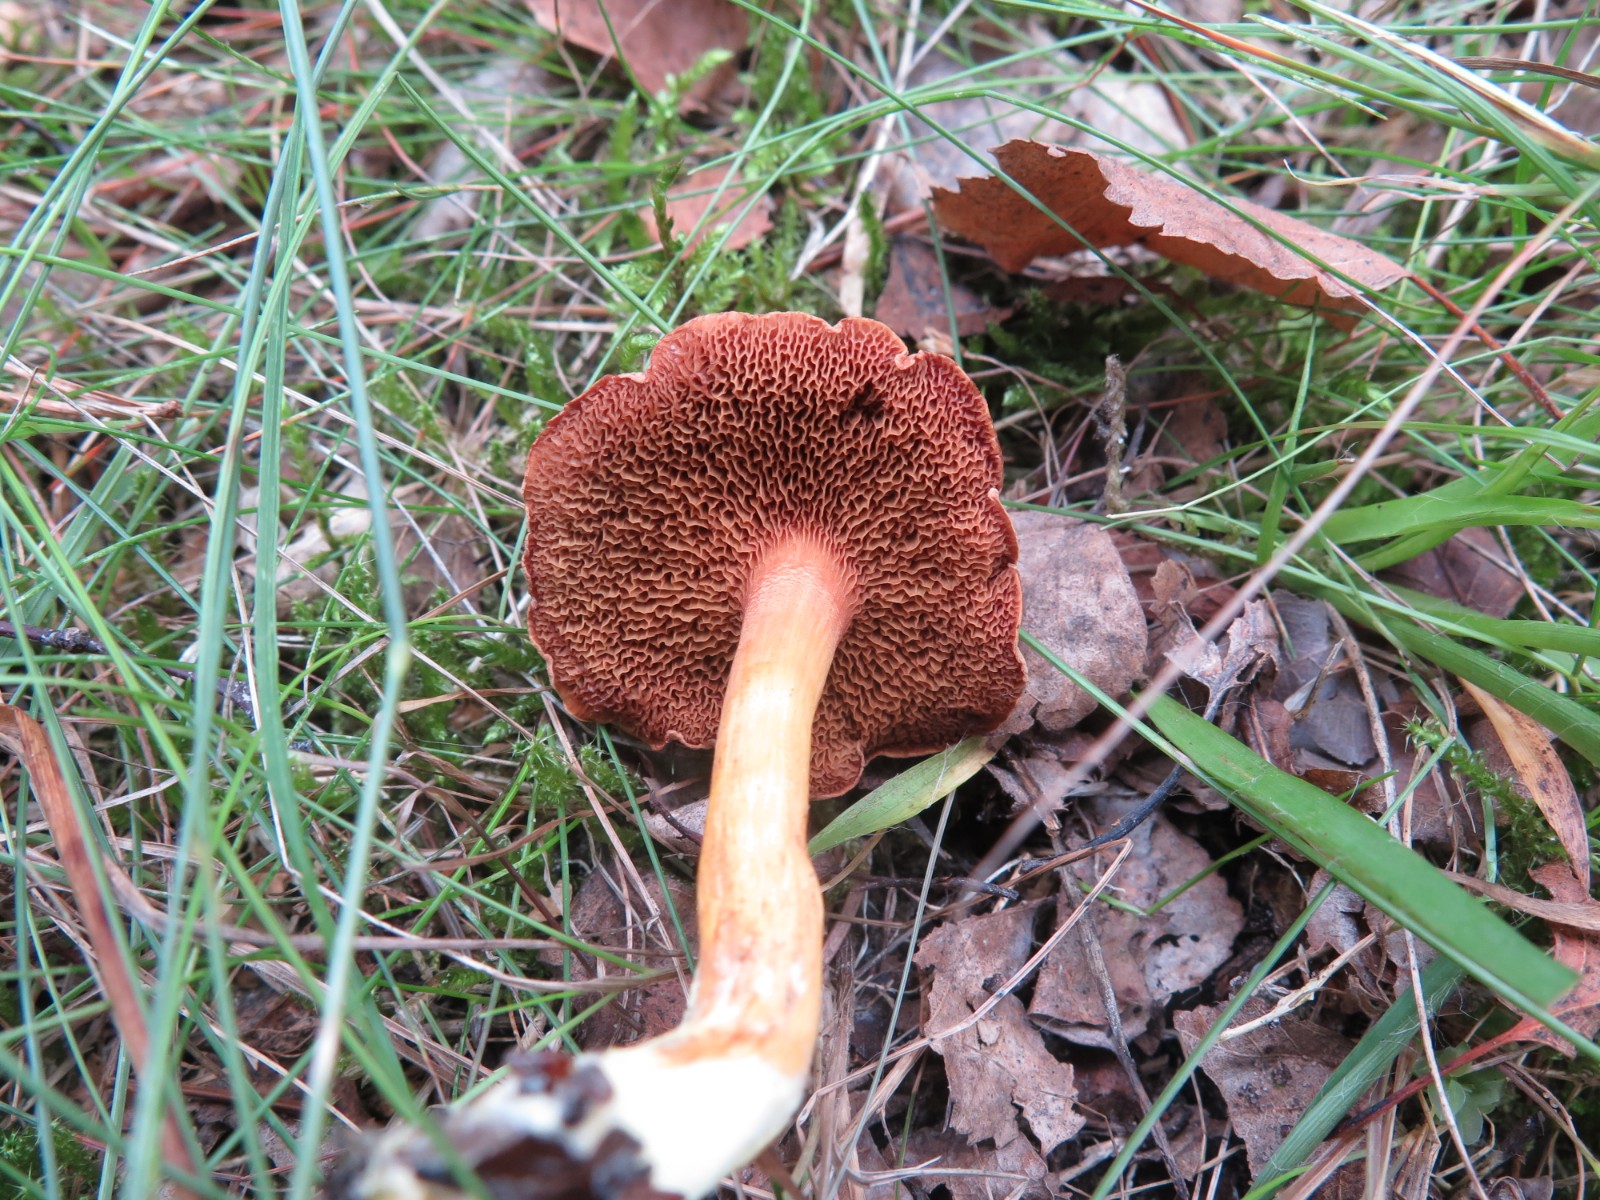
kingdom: Fungi
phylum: Basidiomycota
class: Agaricomycetes
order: Boletales
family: Boletaceae
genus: Chalciporus
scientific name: Chalciporus piperatus
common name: peberrørhat
